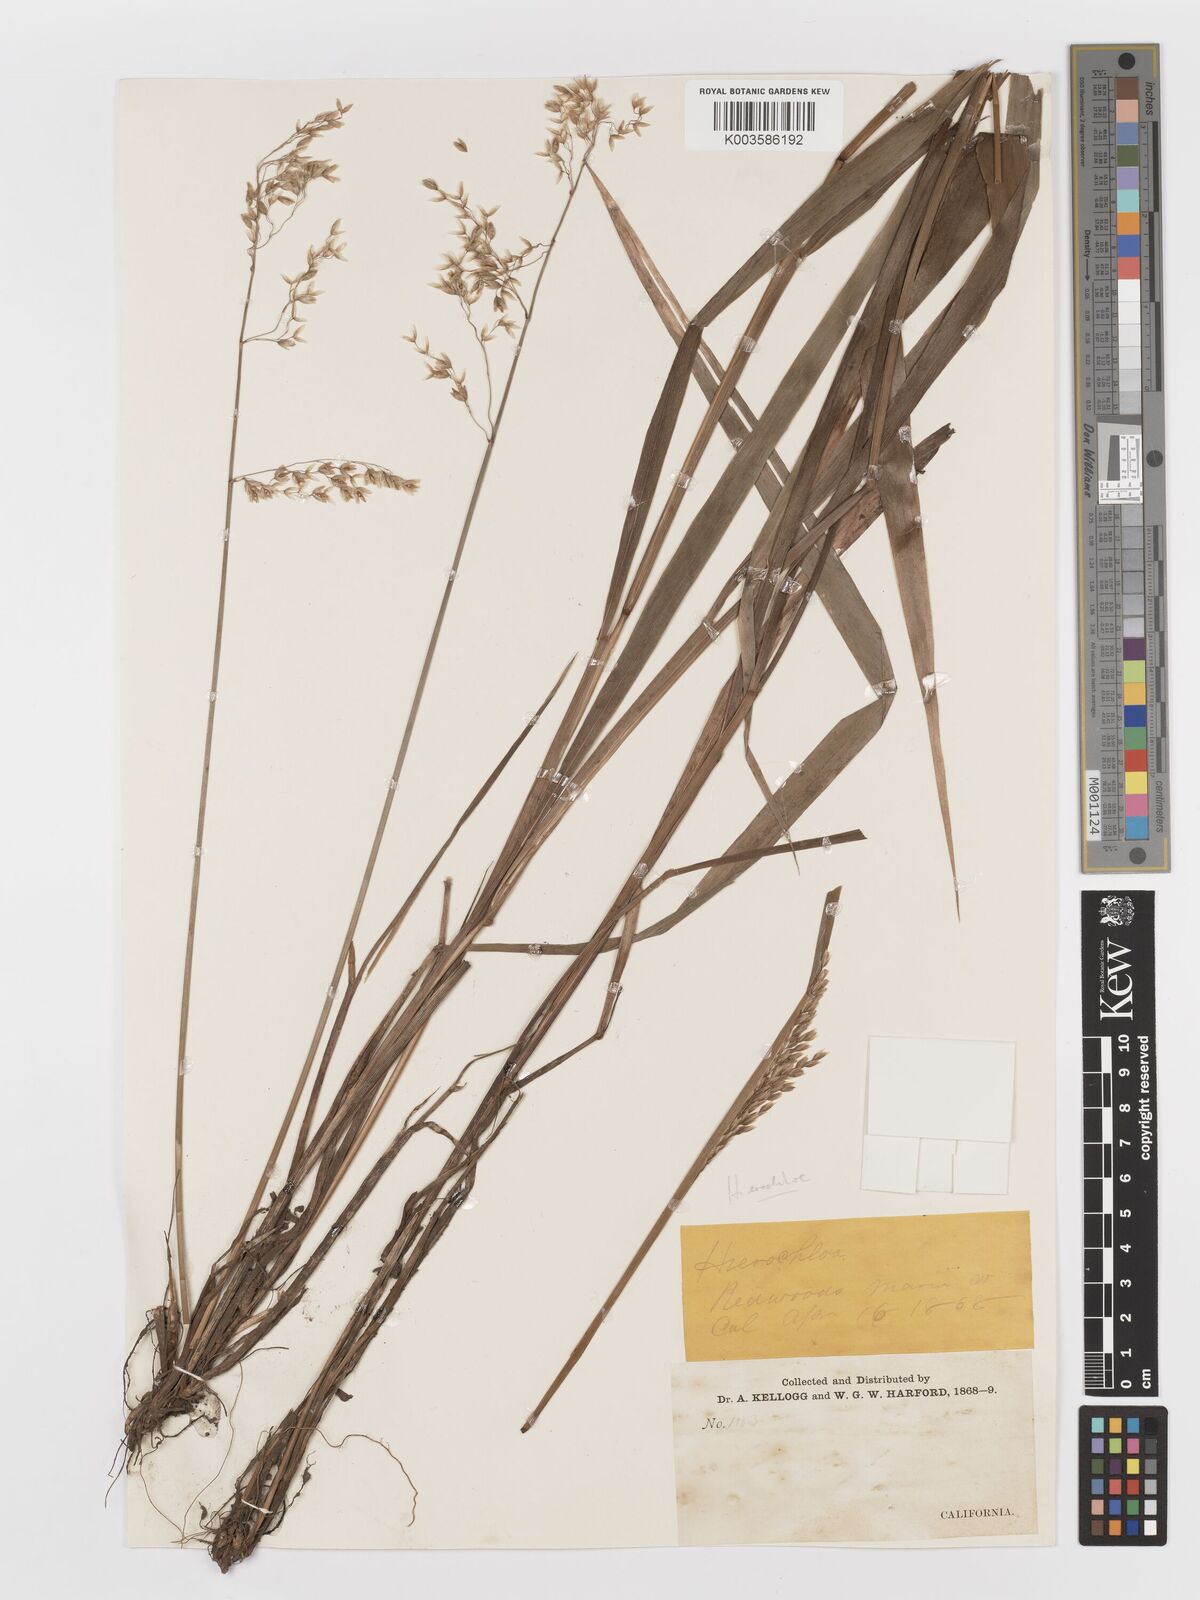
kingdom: Plantae
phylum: Tracheophyta
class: Liliopsida
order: Poales
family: Poaceae
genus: Anthoxanthum
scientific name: Anthoxanthum occidentale
